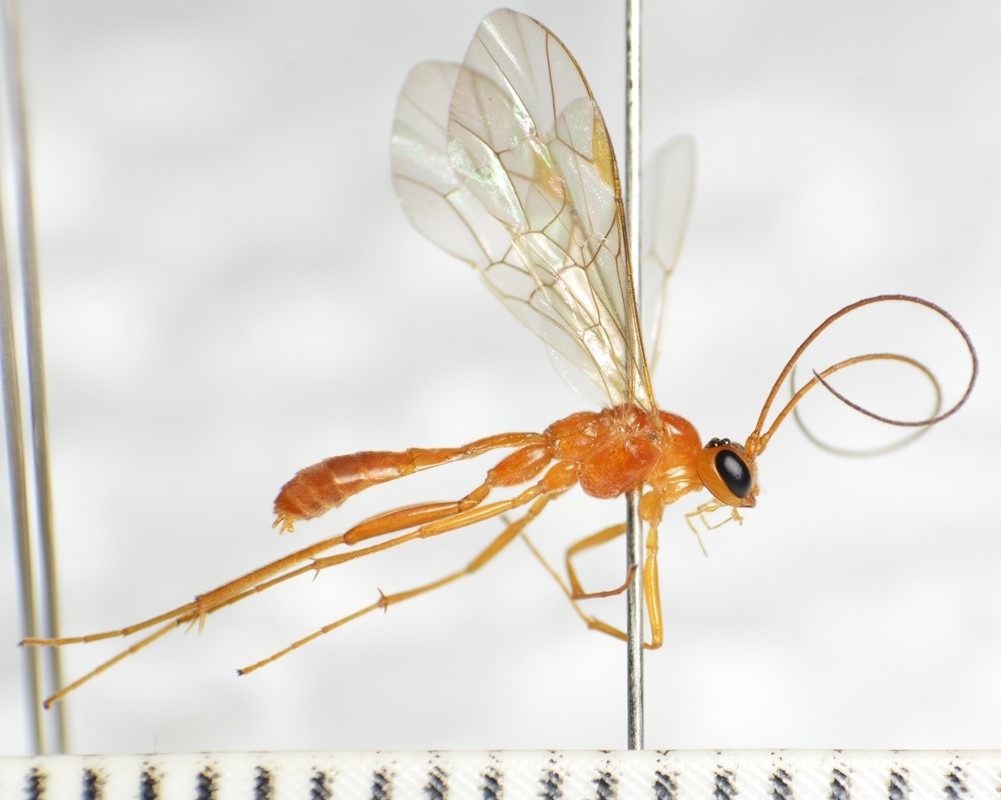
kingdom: Animalia
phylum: Arthropoda
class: Insecta
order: Hymenoptera
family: Ichneumonidae
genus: Absyrtus
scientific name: Absyrtus vernalis
